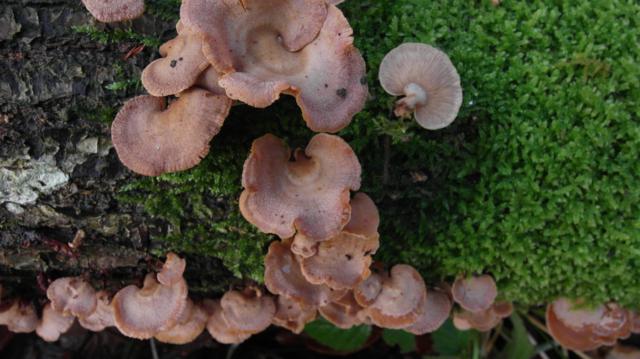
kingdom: Fungi
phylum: Basidiomycota
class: Agaricomycetes
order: Agaricales
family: Mycenaceae
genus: Panellus
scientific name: Panellus stipticus
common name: kliddet epaulethat
